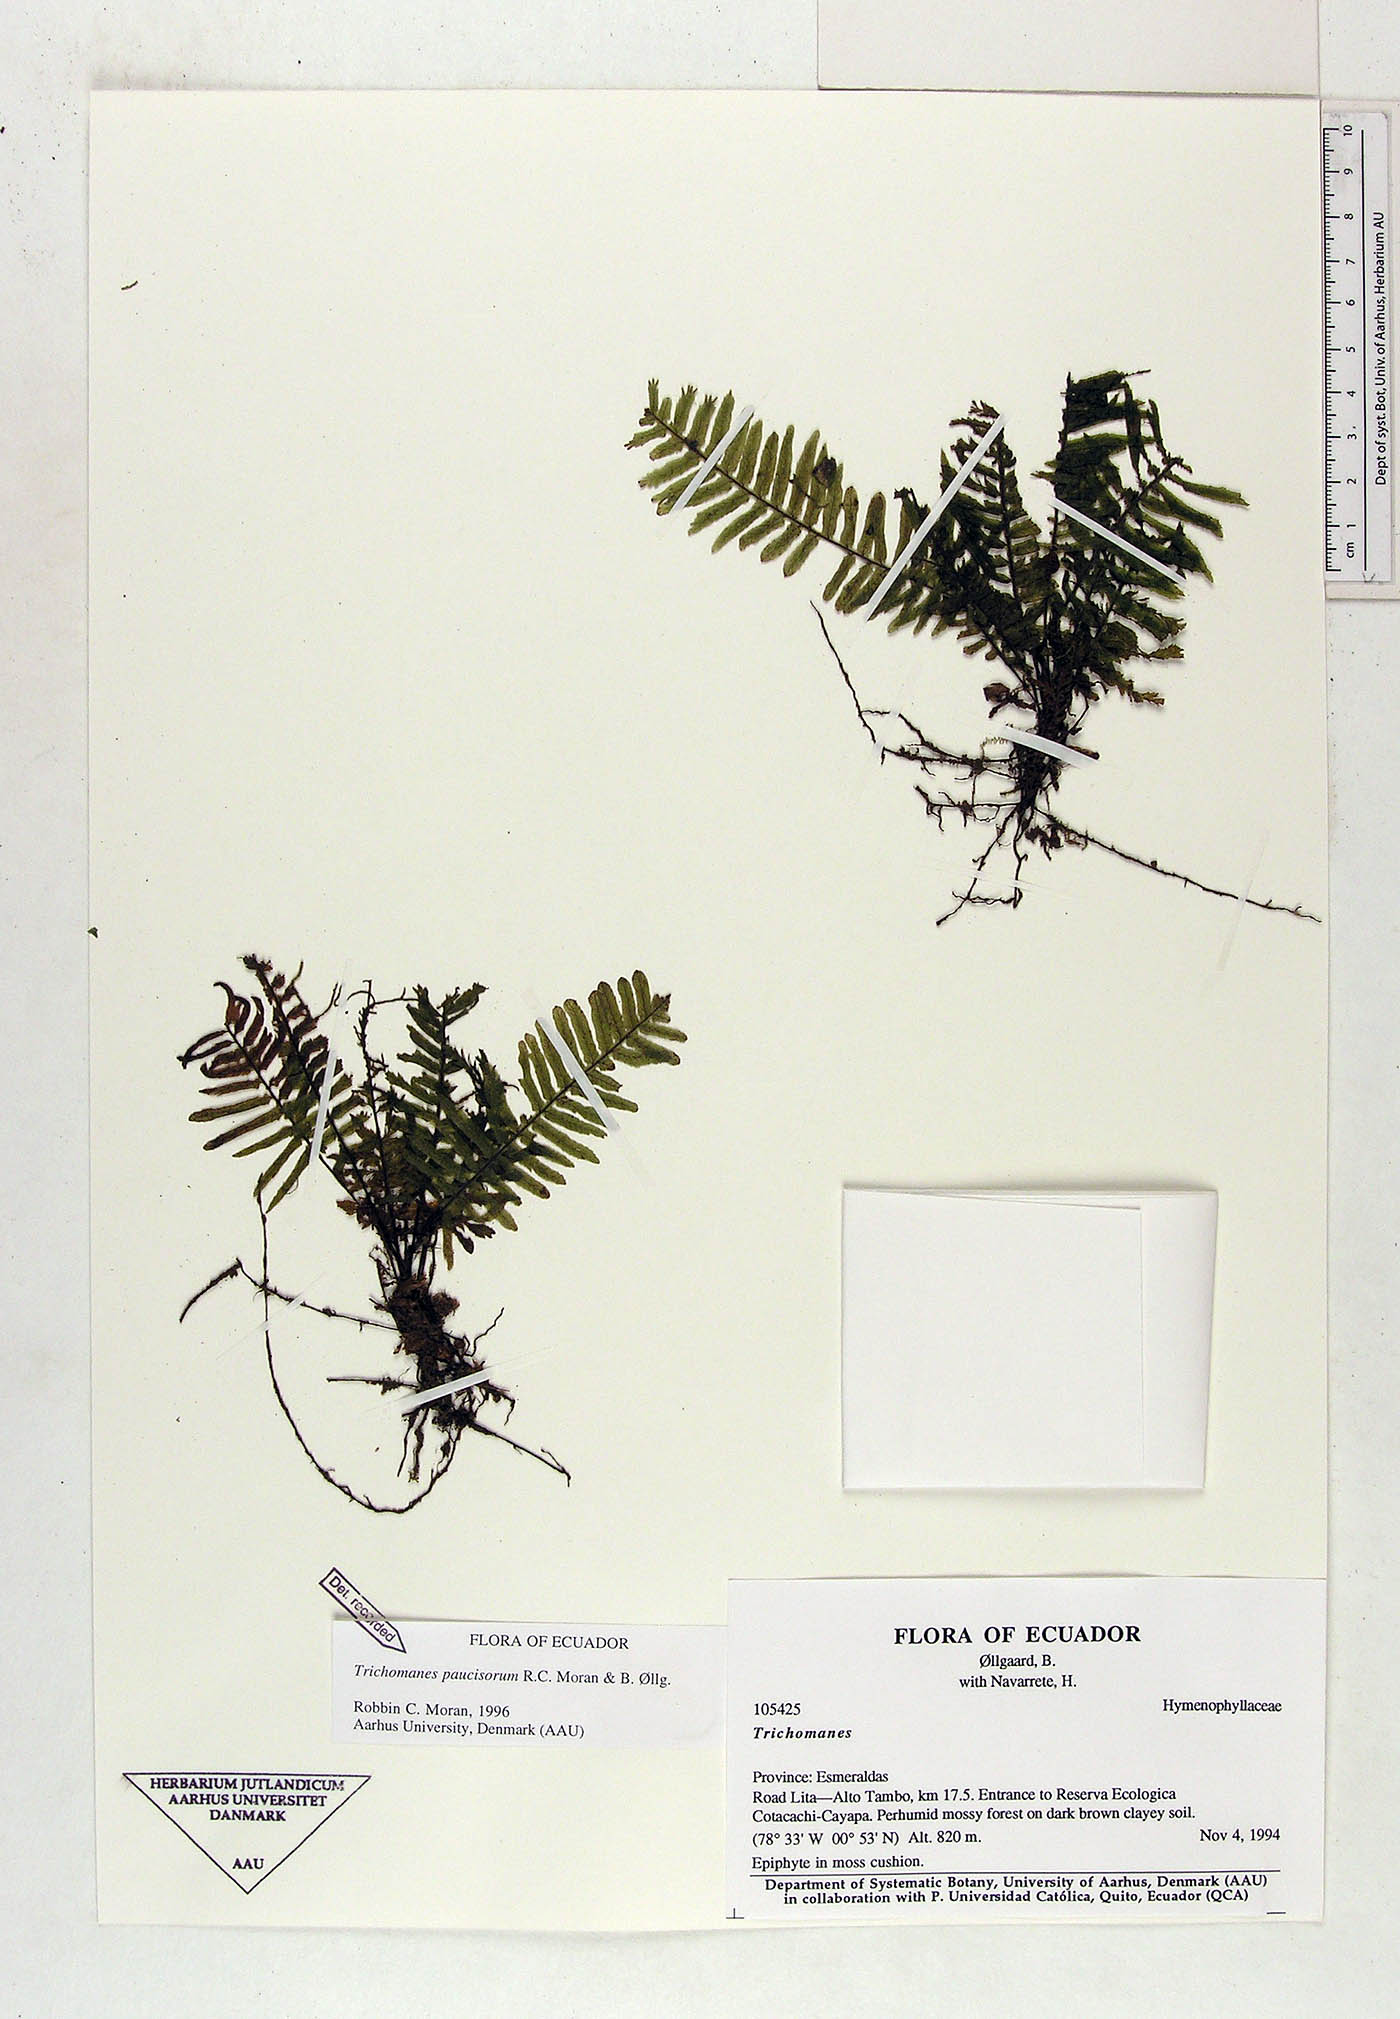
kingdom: Plantae
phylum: Tracheophyta
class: Polypodiopsida
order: Hymenophyllales
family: Hymenophyllaceae
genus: Trichomanes
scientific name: Trichomanes paucisorum
